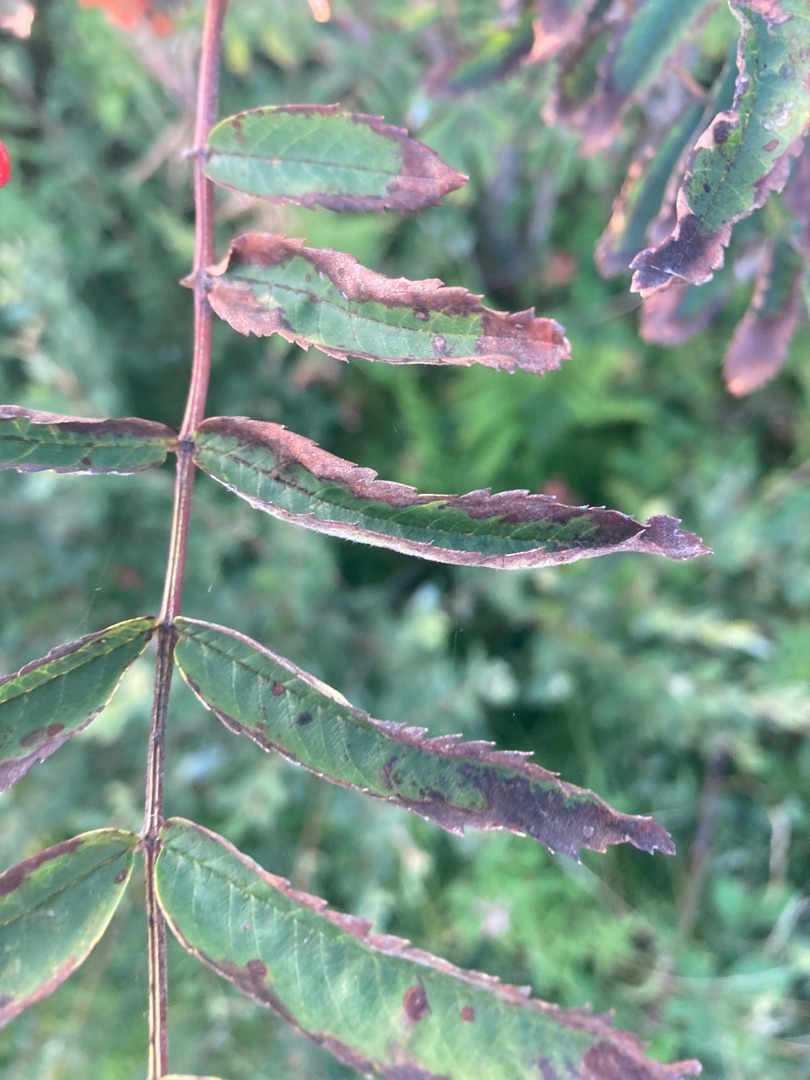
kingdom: Plantae
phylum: Tracheophyta
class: Magnoliopsida
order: Rosales
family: Rosaceae
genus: Sorbus
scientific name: Sorbus aucuparia
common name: Almindelig røn
